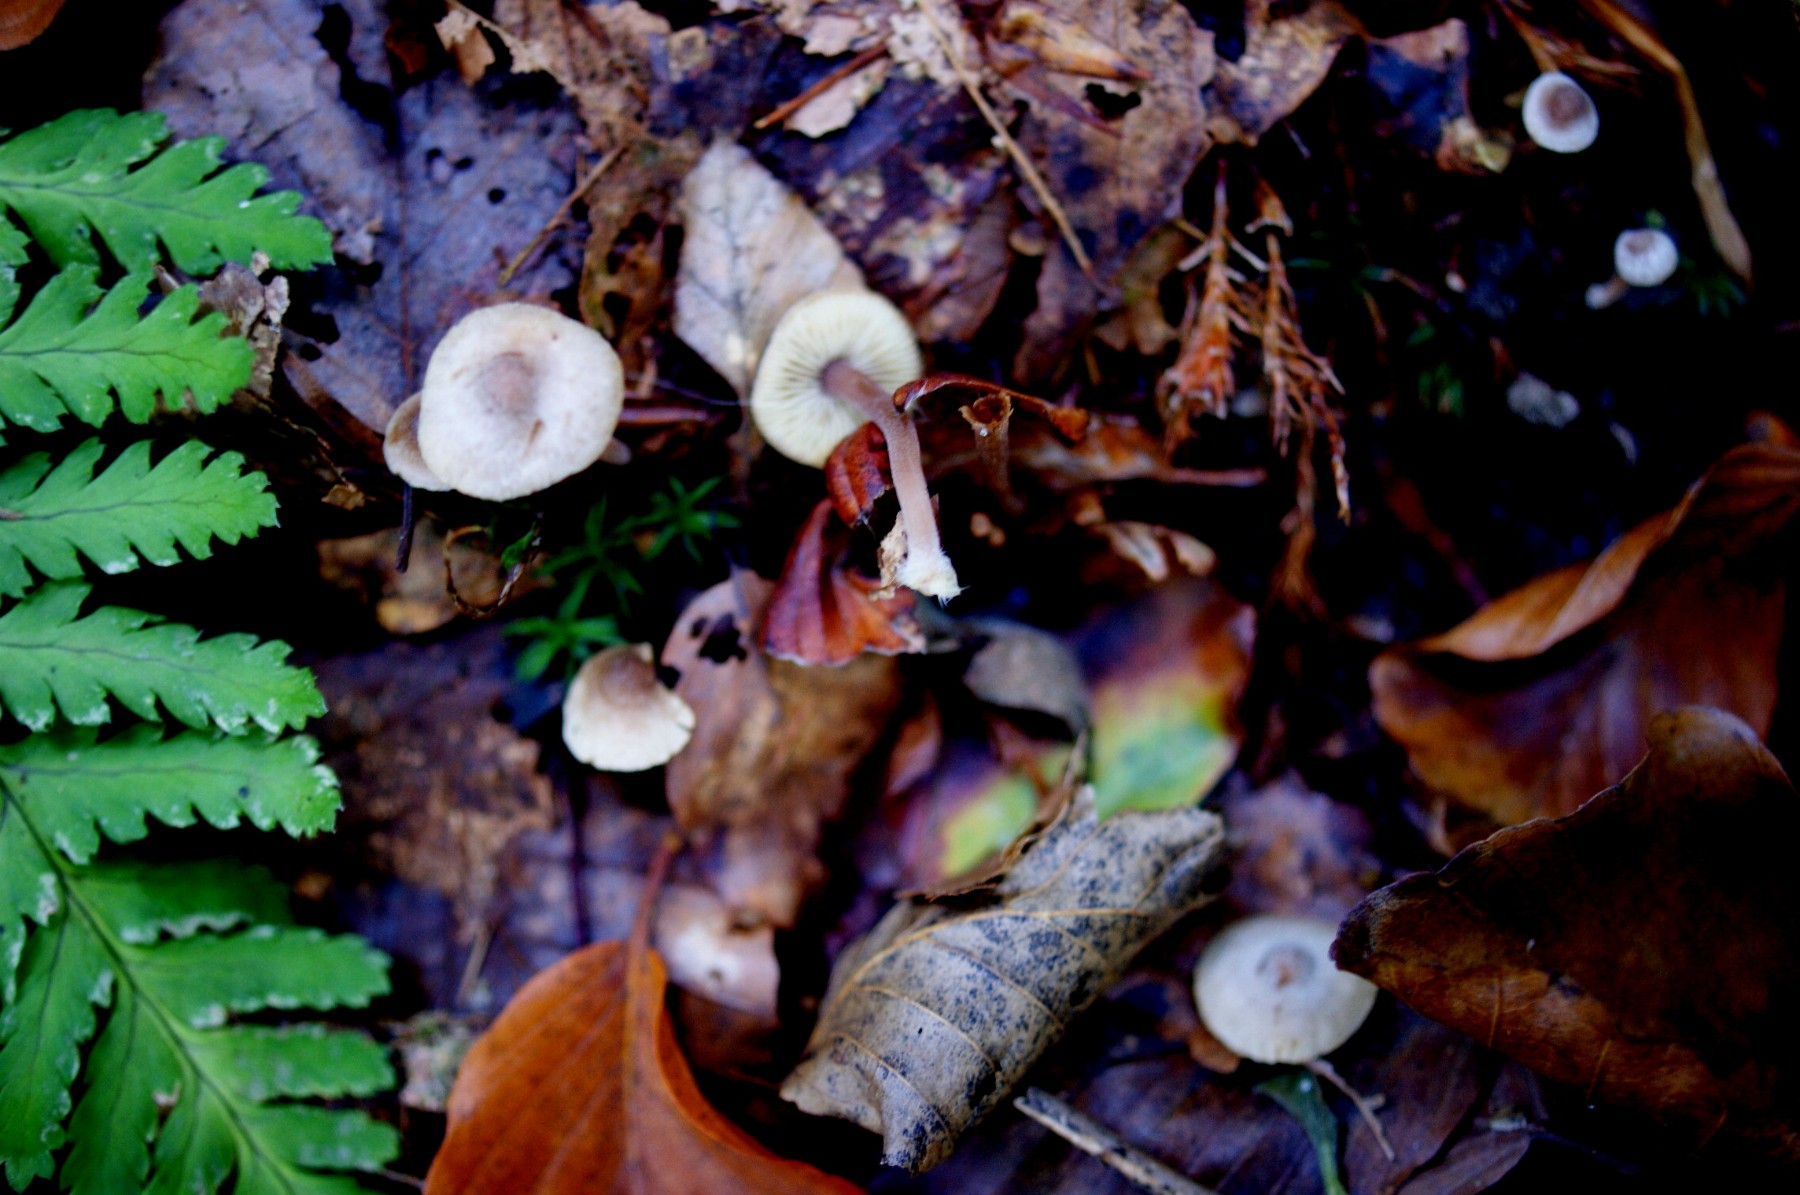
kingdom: Fungi
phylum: Basidiomycota
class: Agaricomycetes
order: Agaricales
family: Inocybaceae
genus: Inocybe
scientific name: Inocybe petiginosa
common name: liden trævlhat
